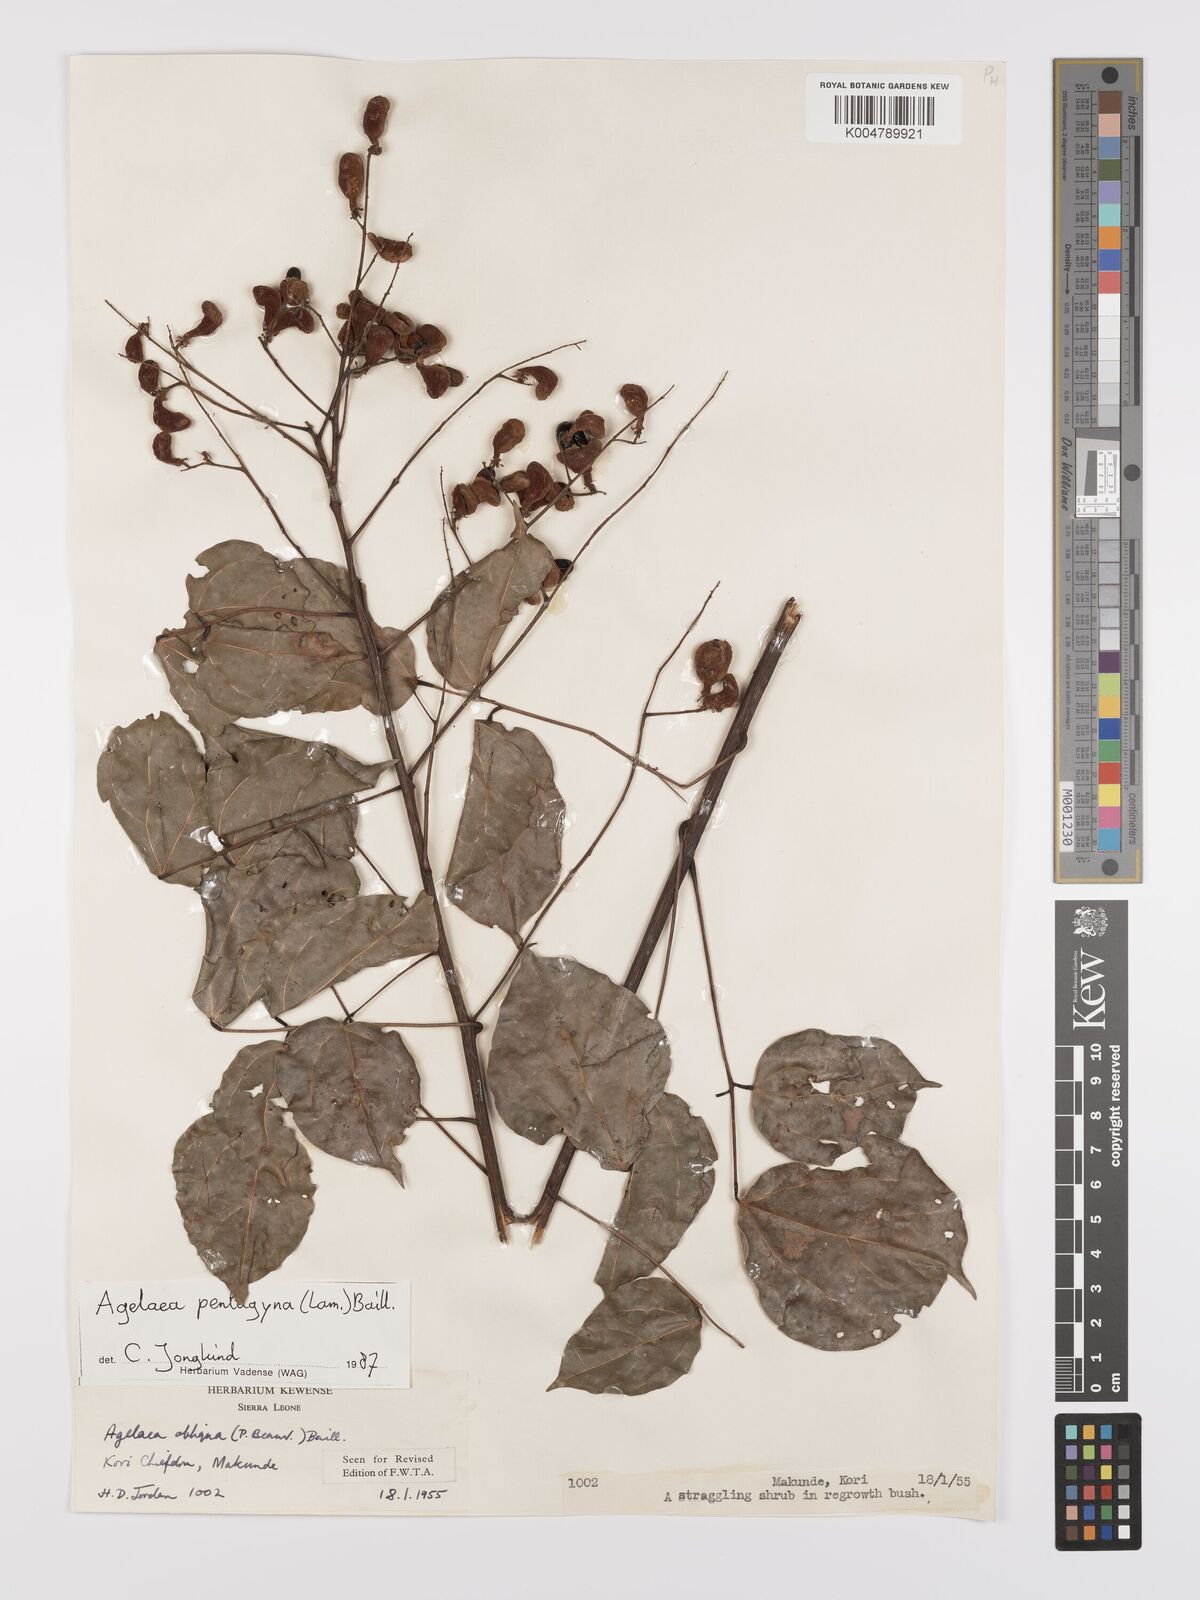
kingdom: Plantae
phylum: Tracheophyta
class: Magnoliopsida
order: Oxalidales
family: Connaraceae
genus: Agelaea
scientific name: Agelaea pentagyna
